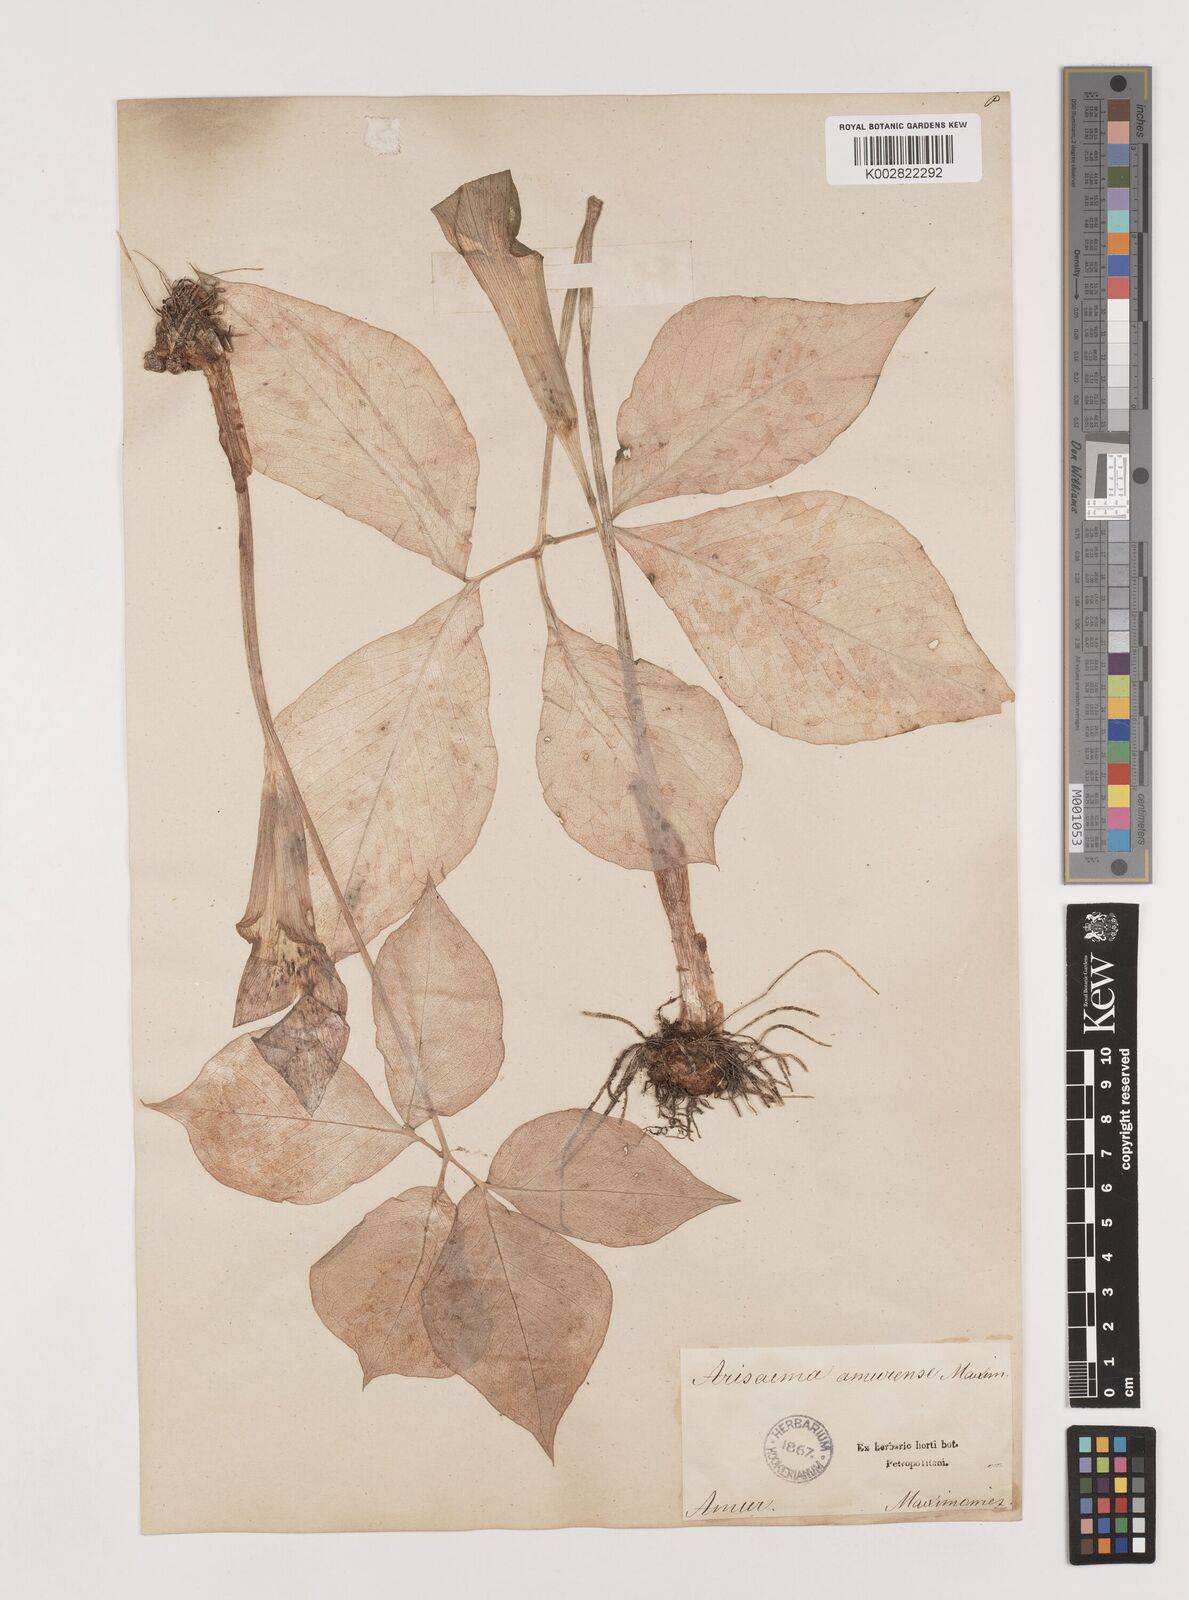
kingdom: Plantae
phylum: Tracheophyta
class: Liliopsida
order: Alismatales
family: Araceae
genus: Arisaema
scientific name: Arisaema amurense
